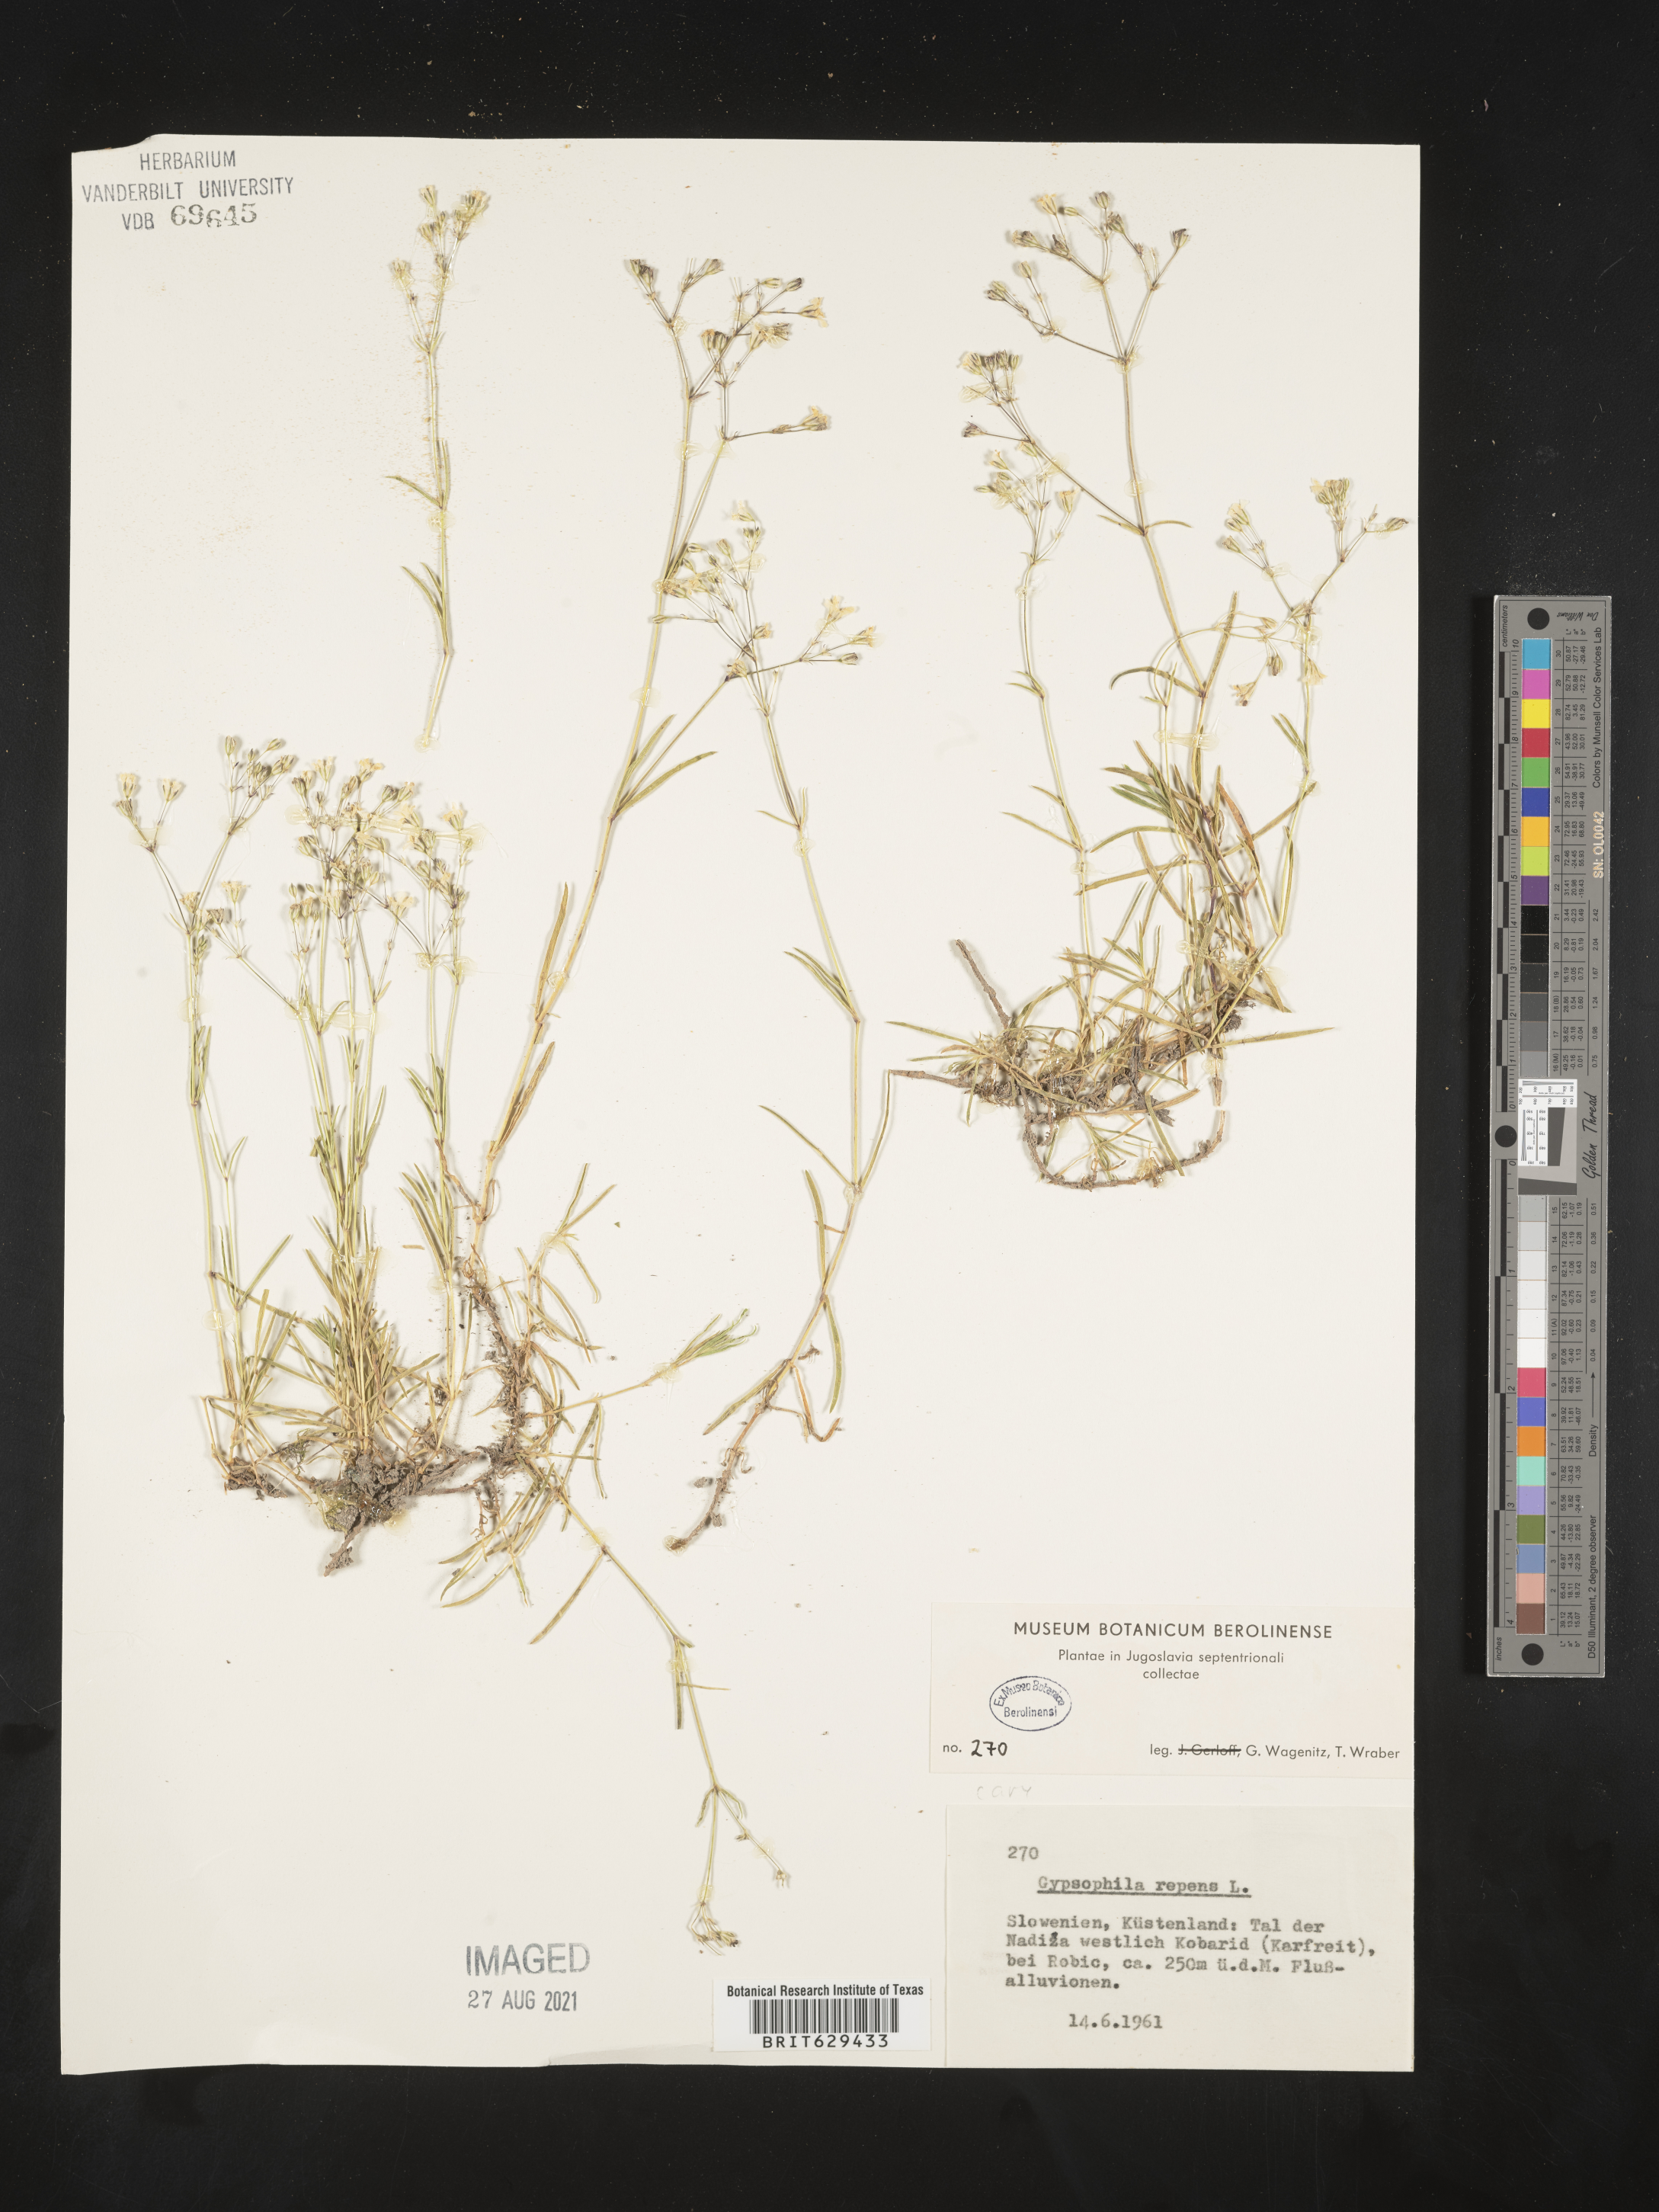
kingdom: Plantae
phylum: Tracheophyta
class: Magnoliopsida
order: Caryophyllales
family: Caryophyllaceae
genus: Gypsophila
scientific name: Gypsophila repens
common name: Creeping baby's-breath
